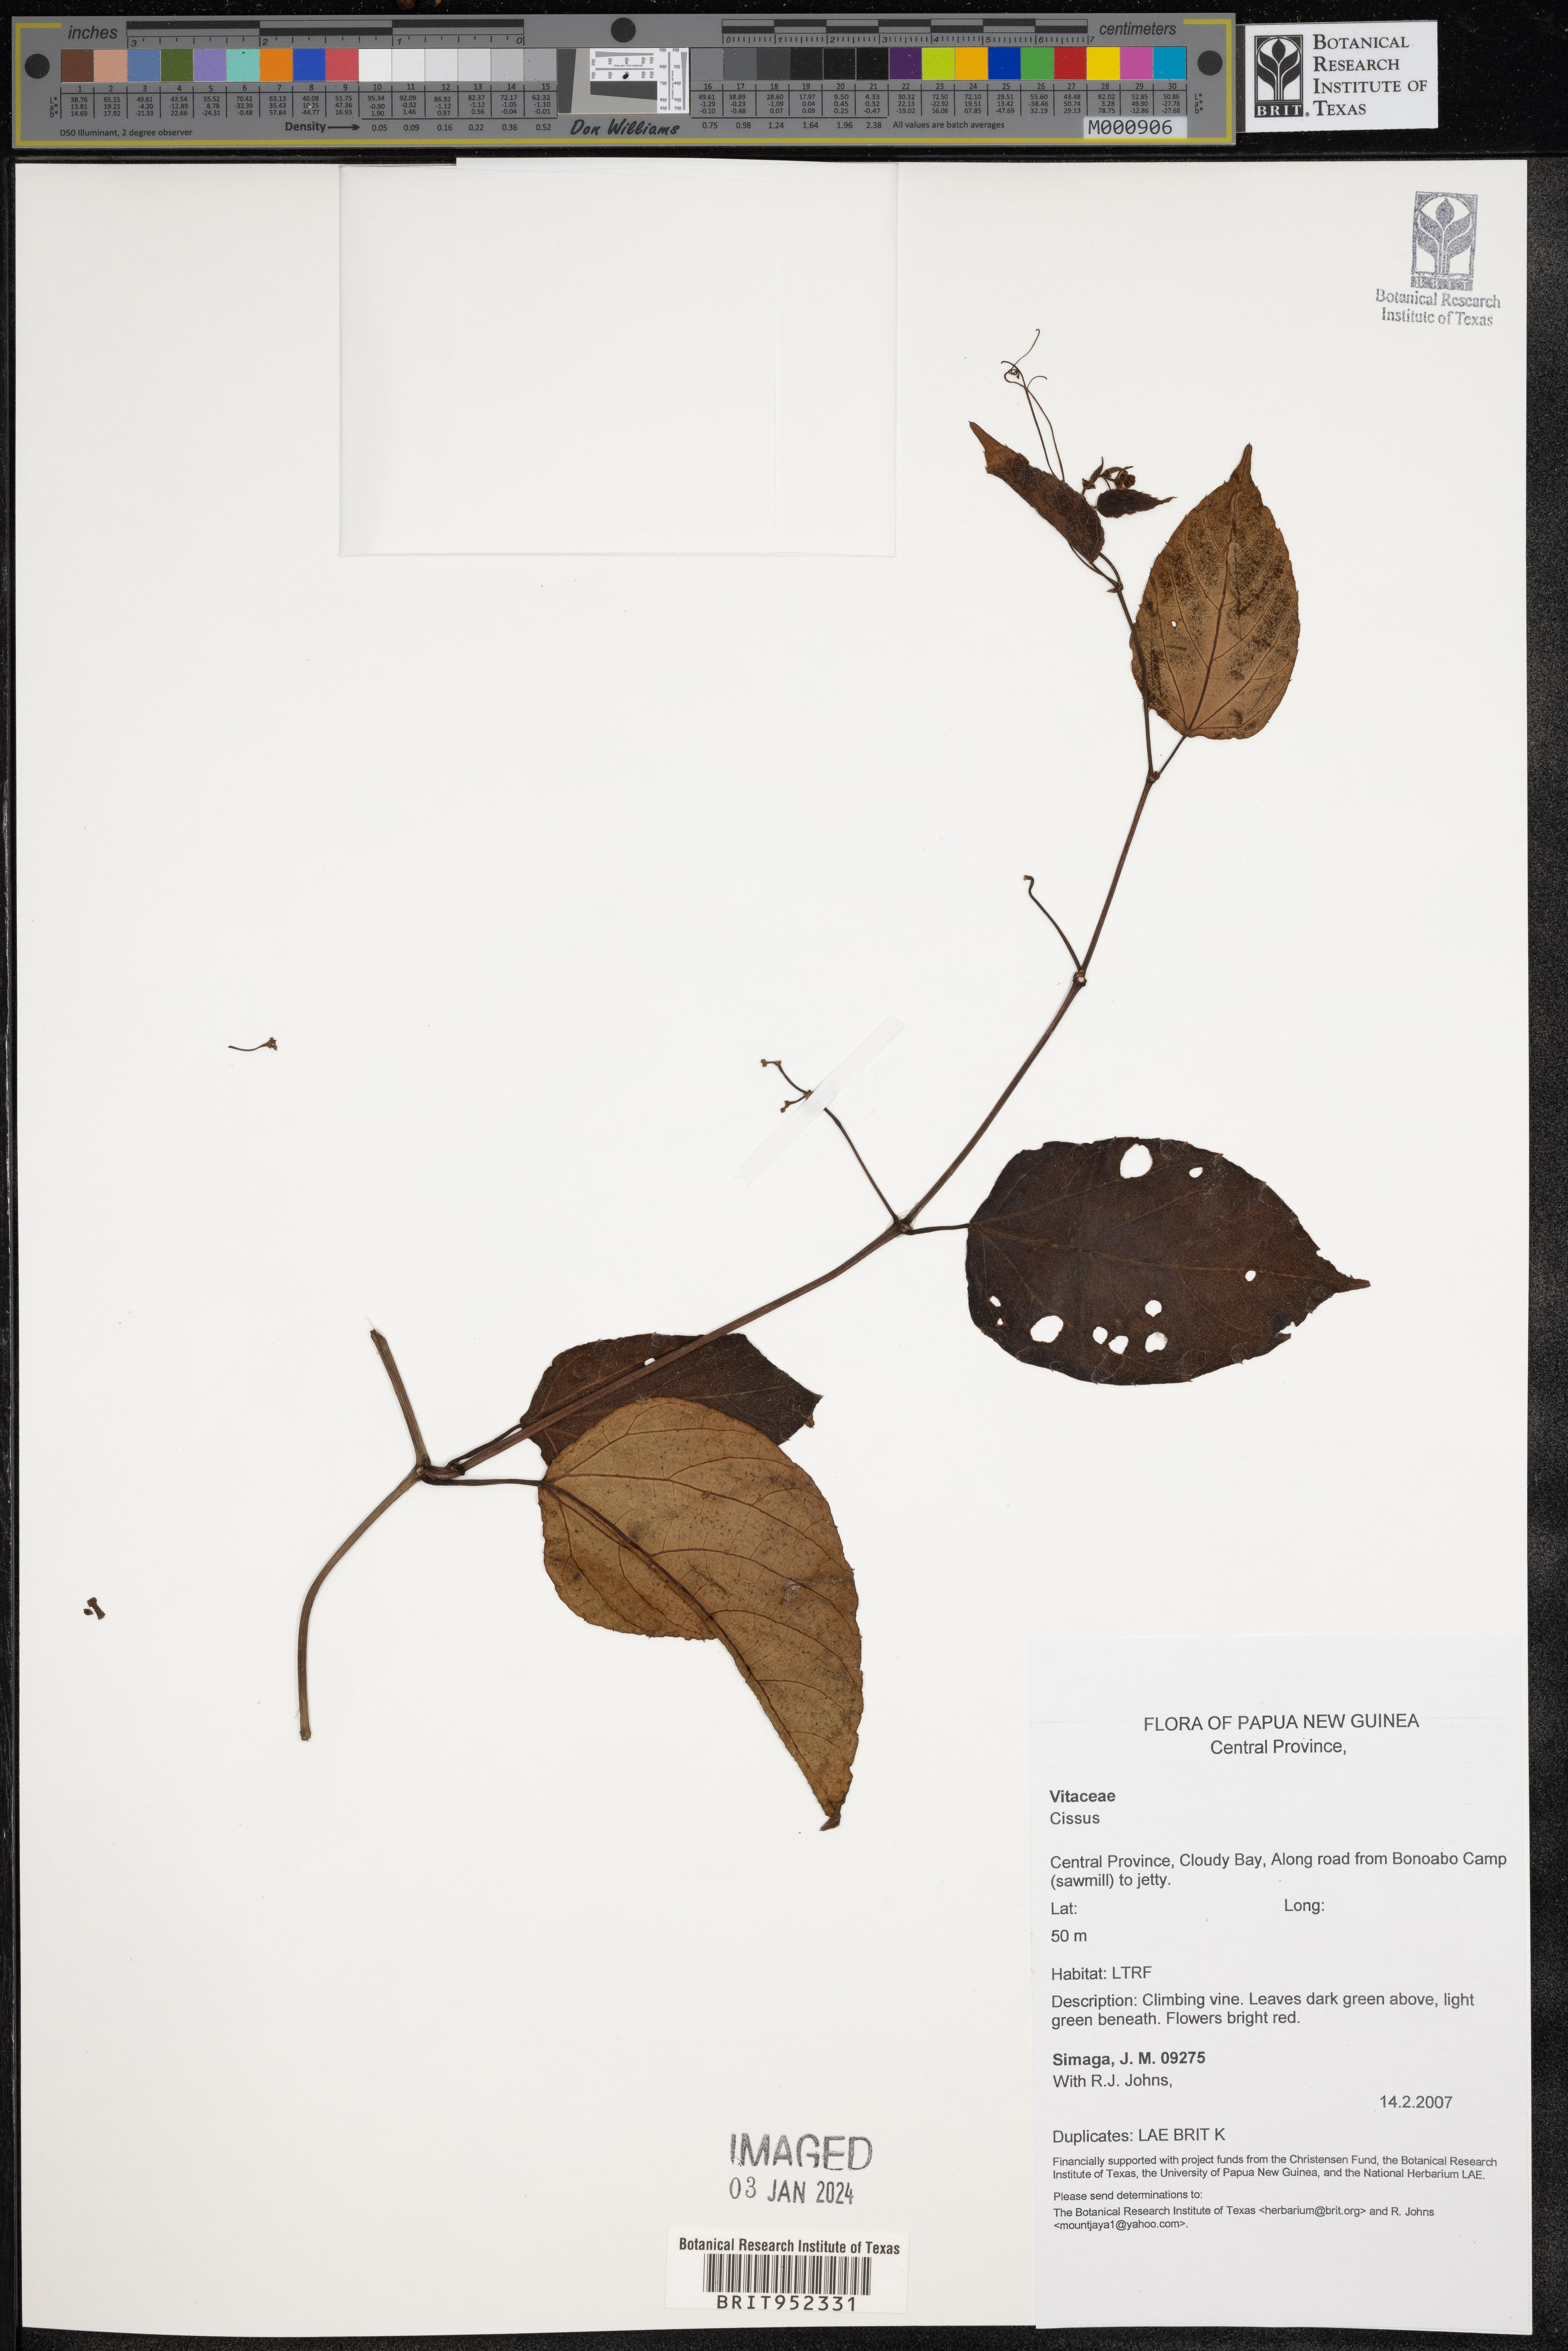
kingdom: Plantae
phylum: Tracheophyta
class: Magnoliopsida
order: Vitales
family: Vitaceae
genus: Cissus
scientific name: Cissus
